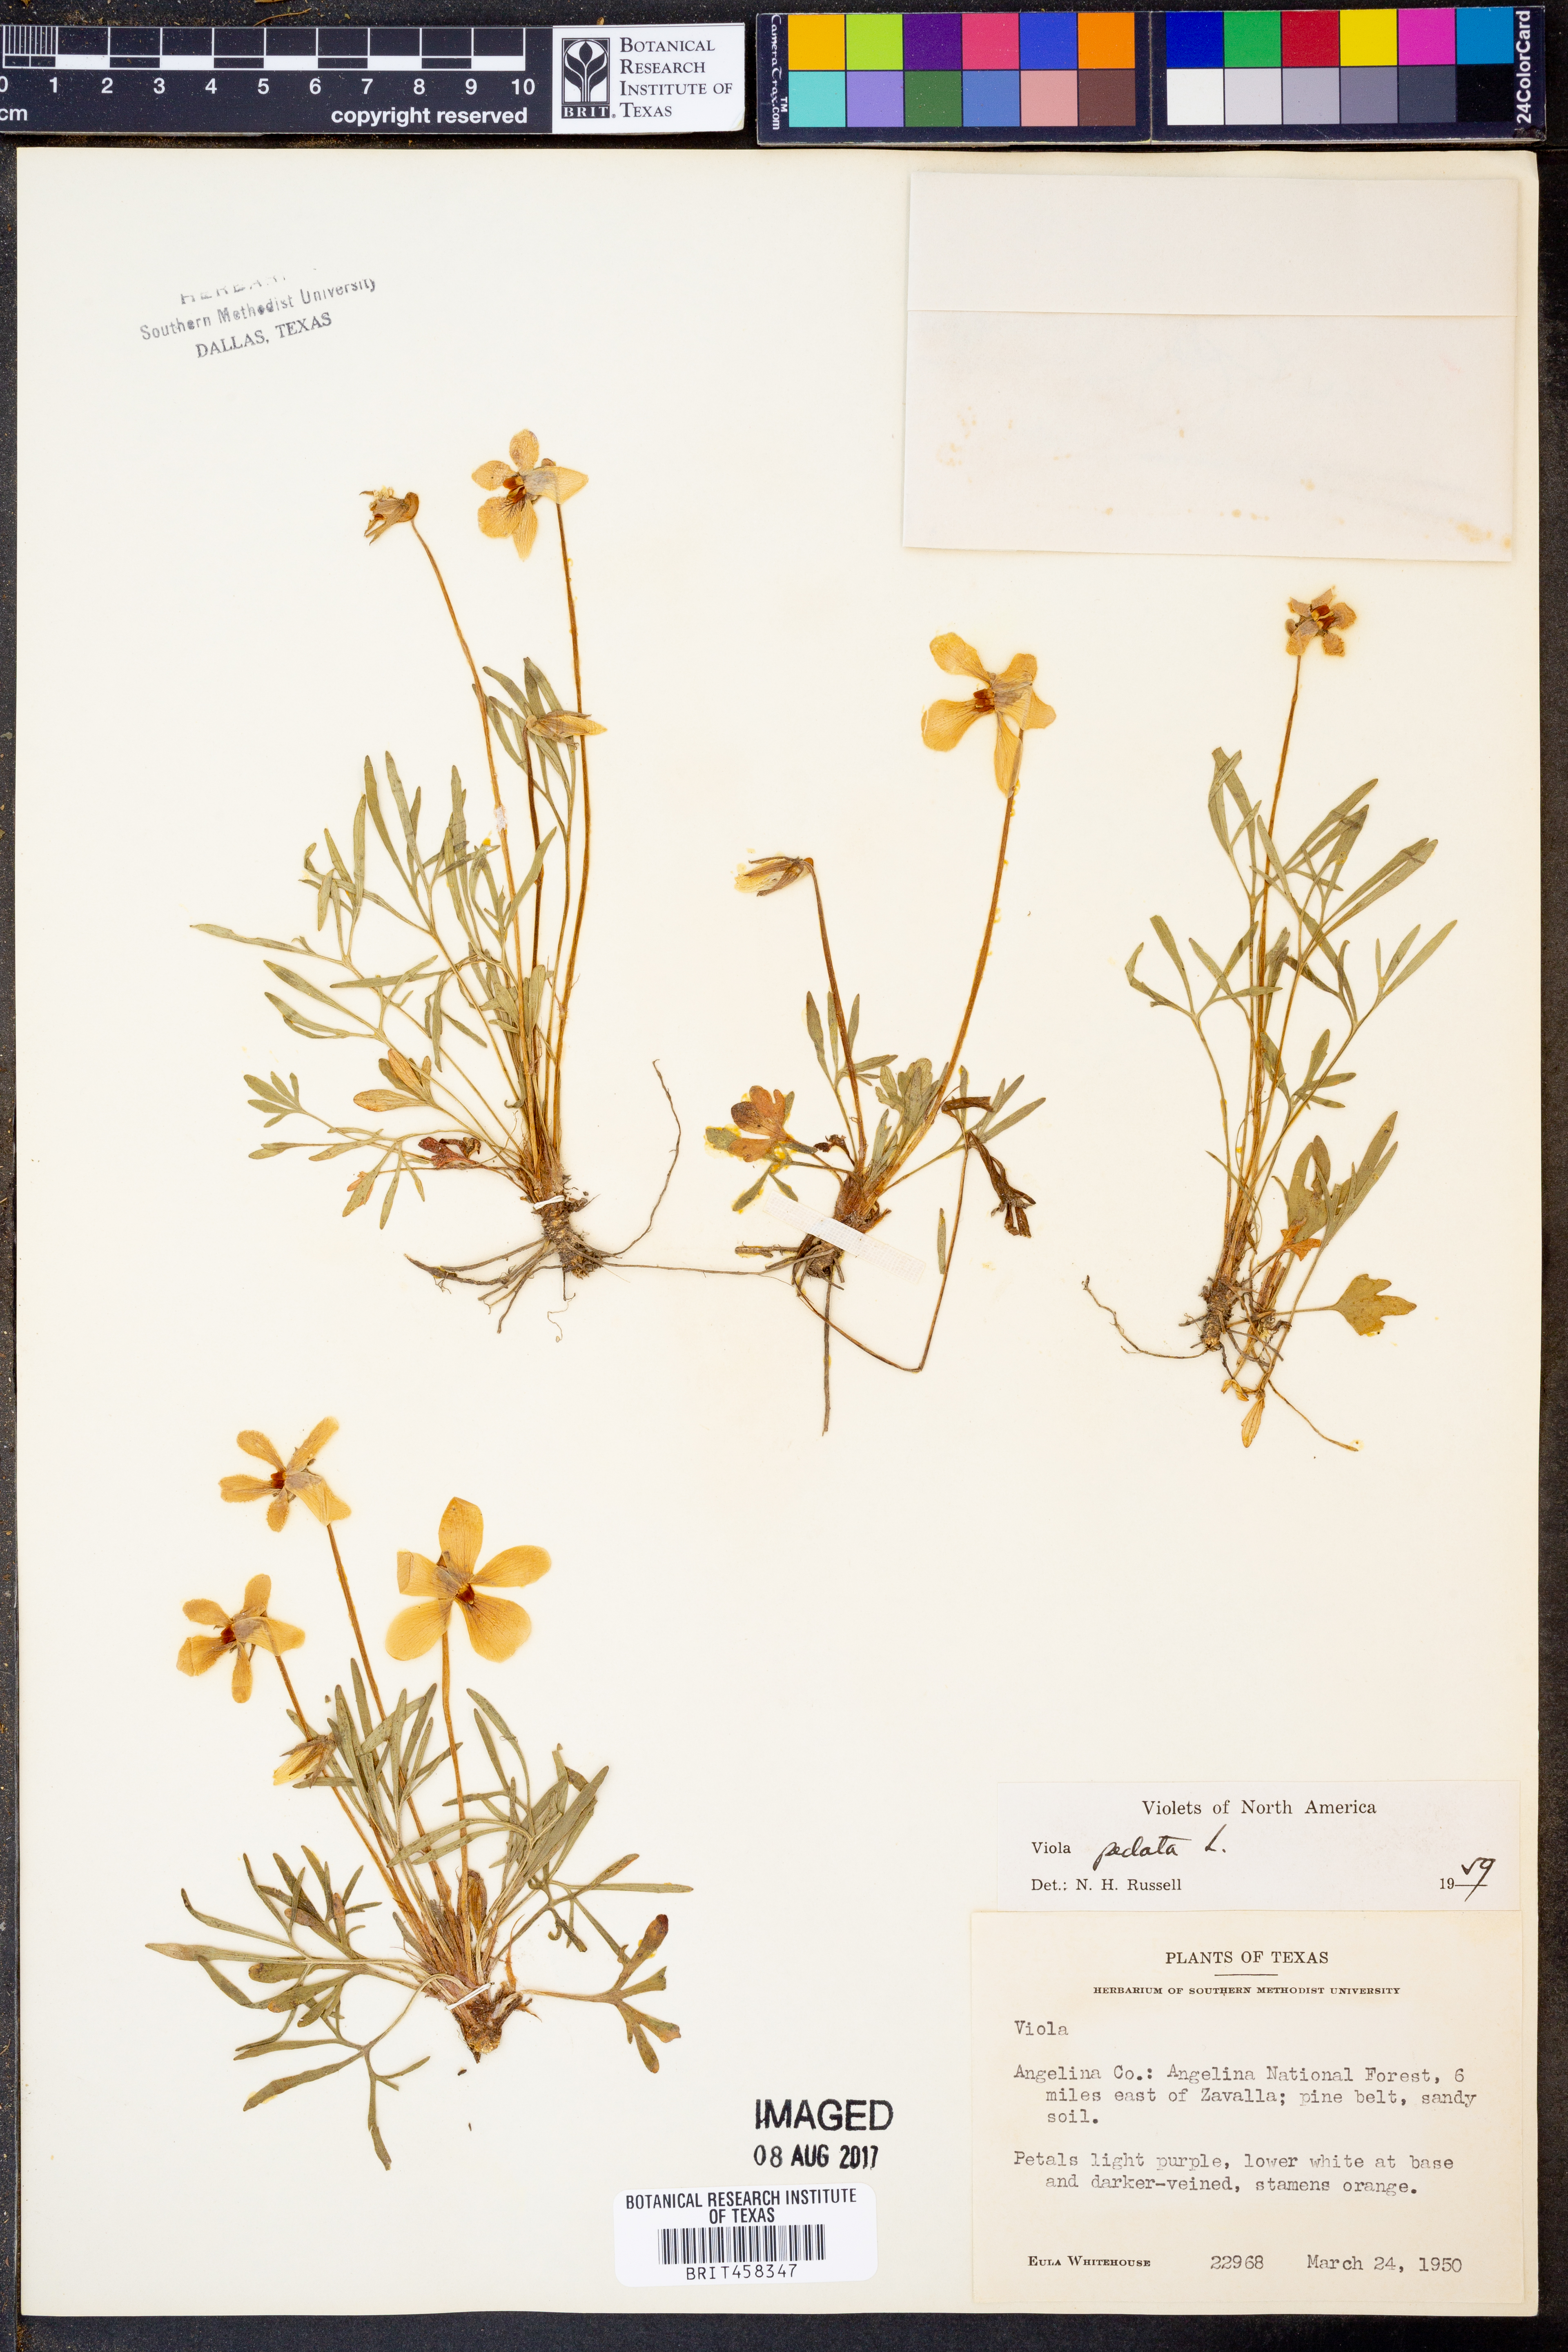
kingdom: Plantae
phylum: Tracheophyta
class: Magnoliopsida
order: Malpighiales
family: Violaceae
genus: Viola
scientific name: Viola pedata
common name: Pansy violet
